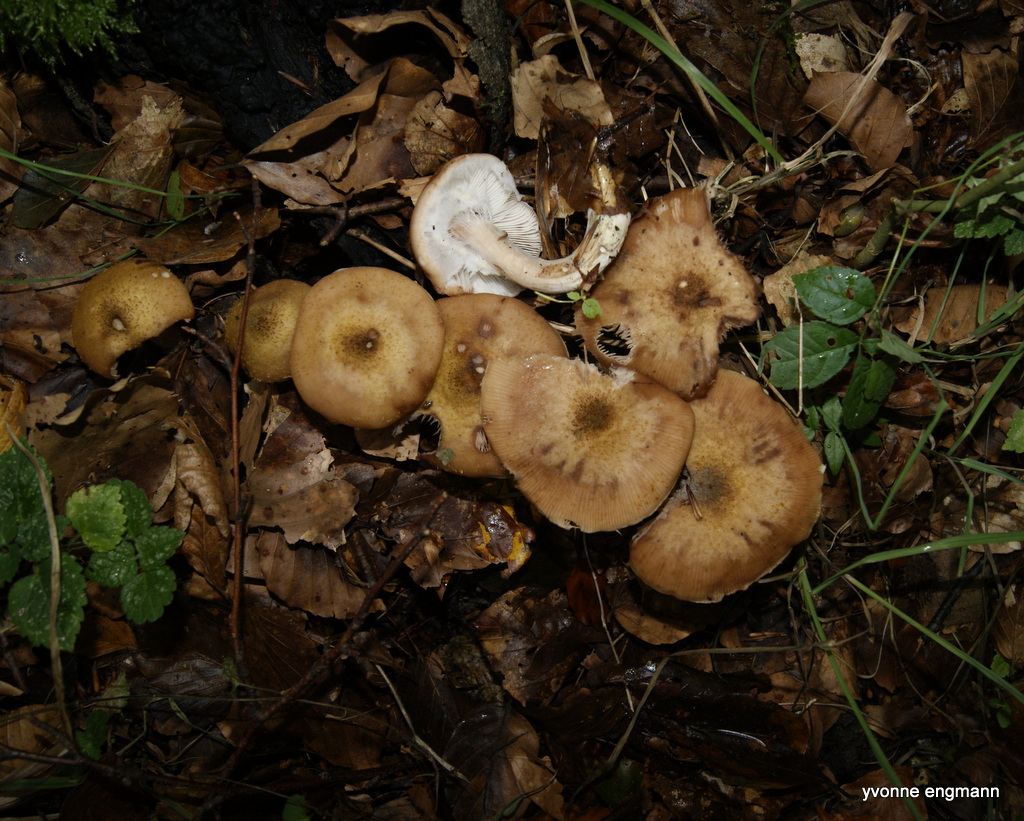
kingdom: Fungi
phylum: Basidiomycota
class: Agaricomycetes
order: Agaricales
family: Physalacriaceae
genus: Armillaria
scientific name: Armillaria lutea
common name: køllestokket honningsvamp
